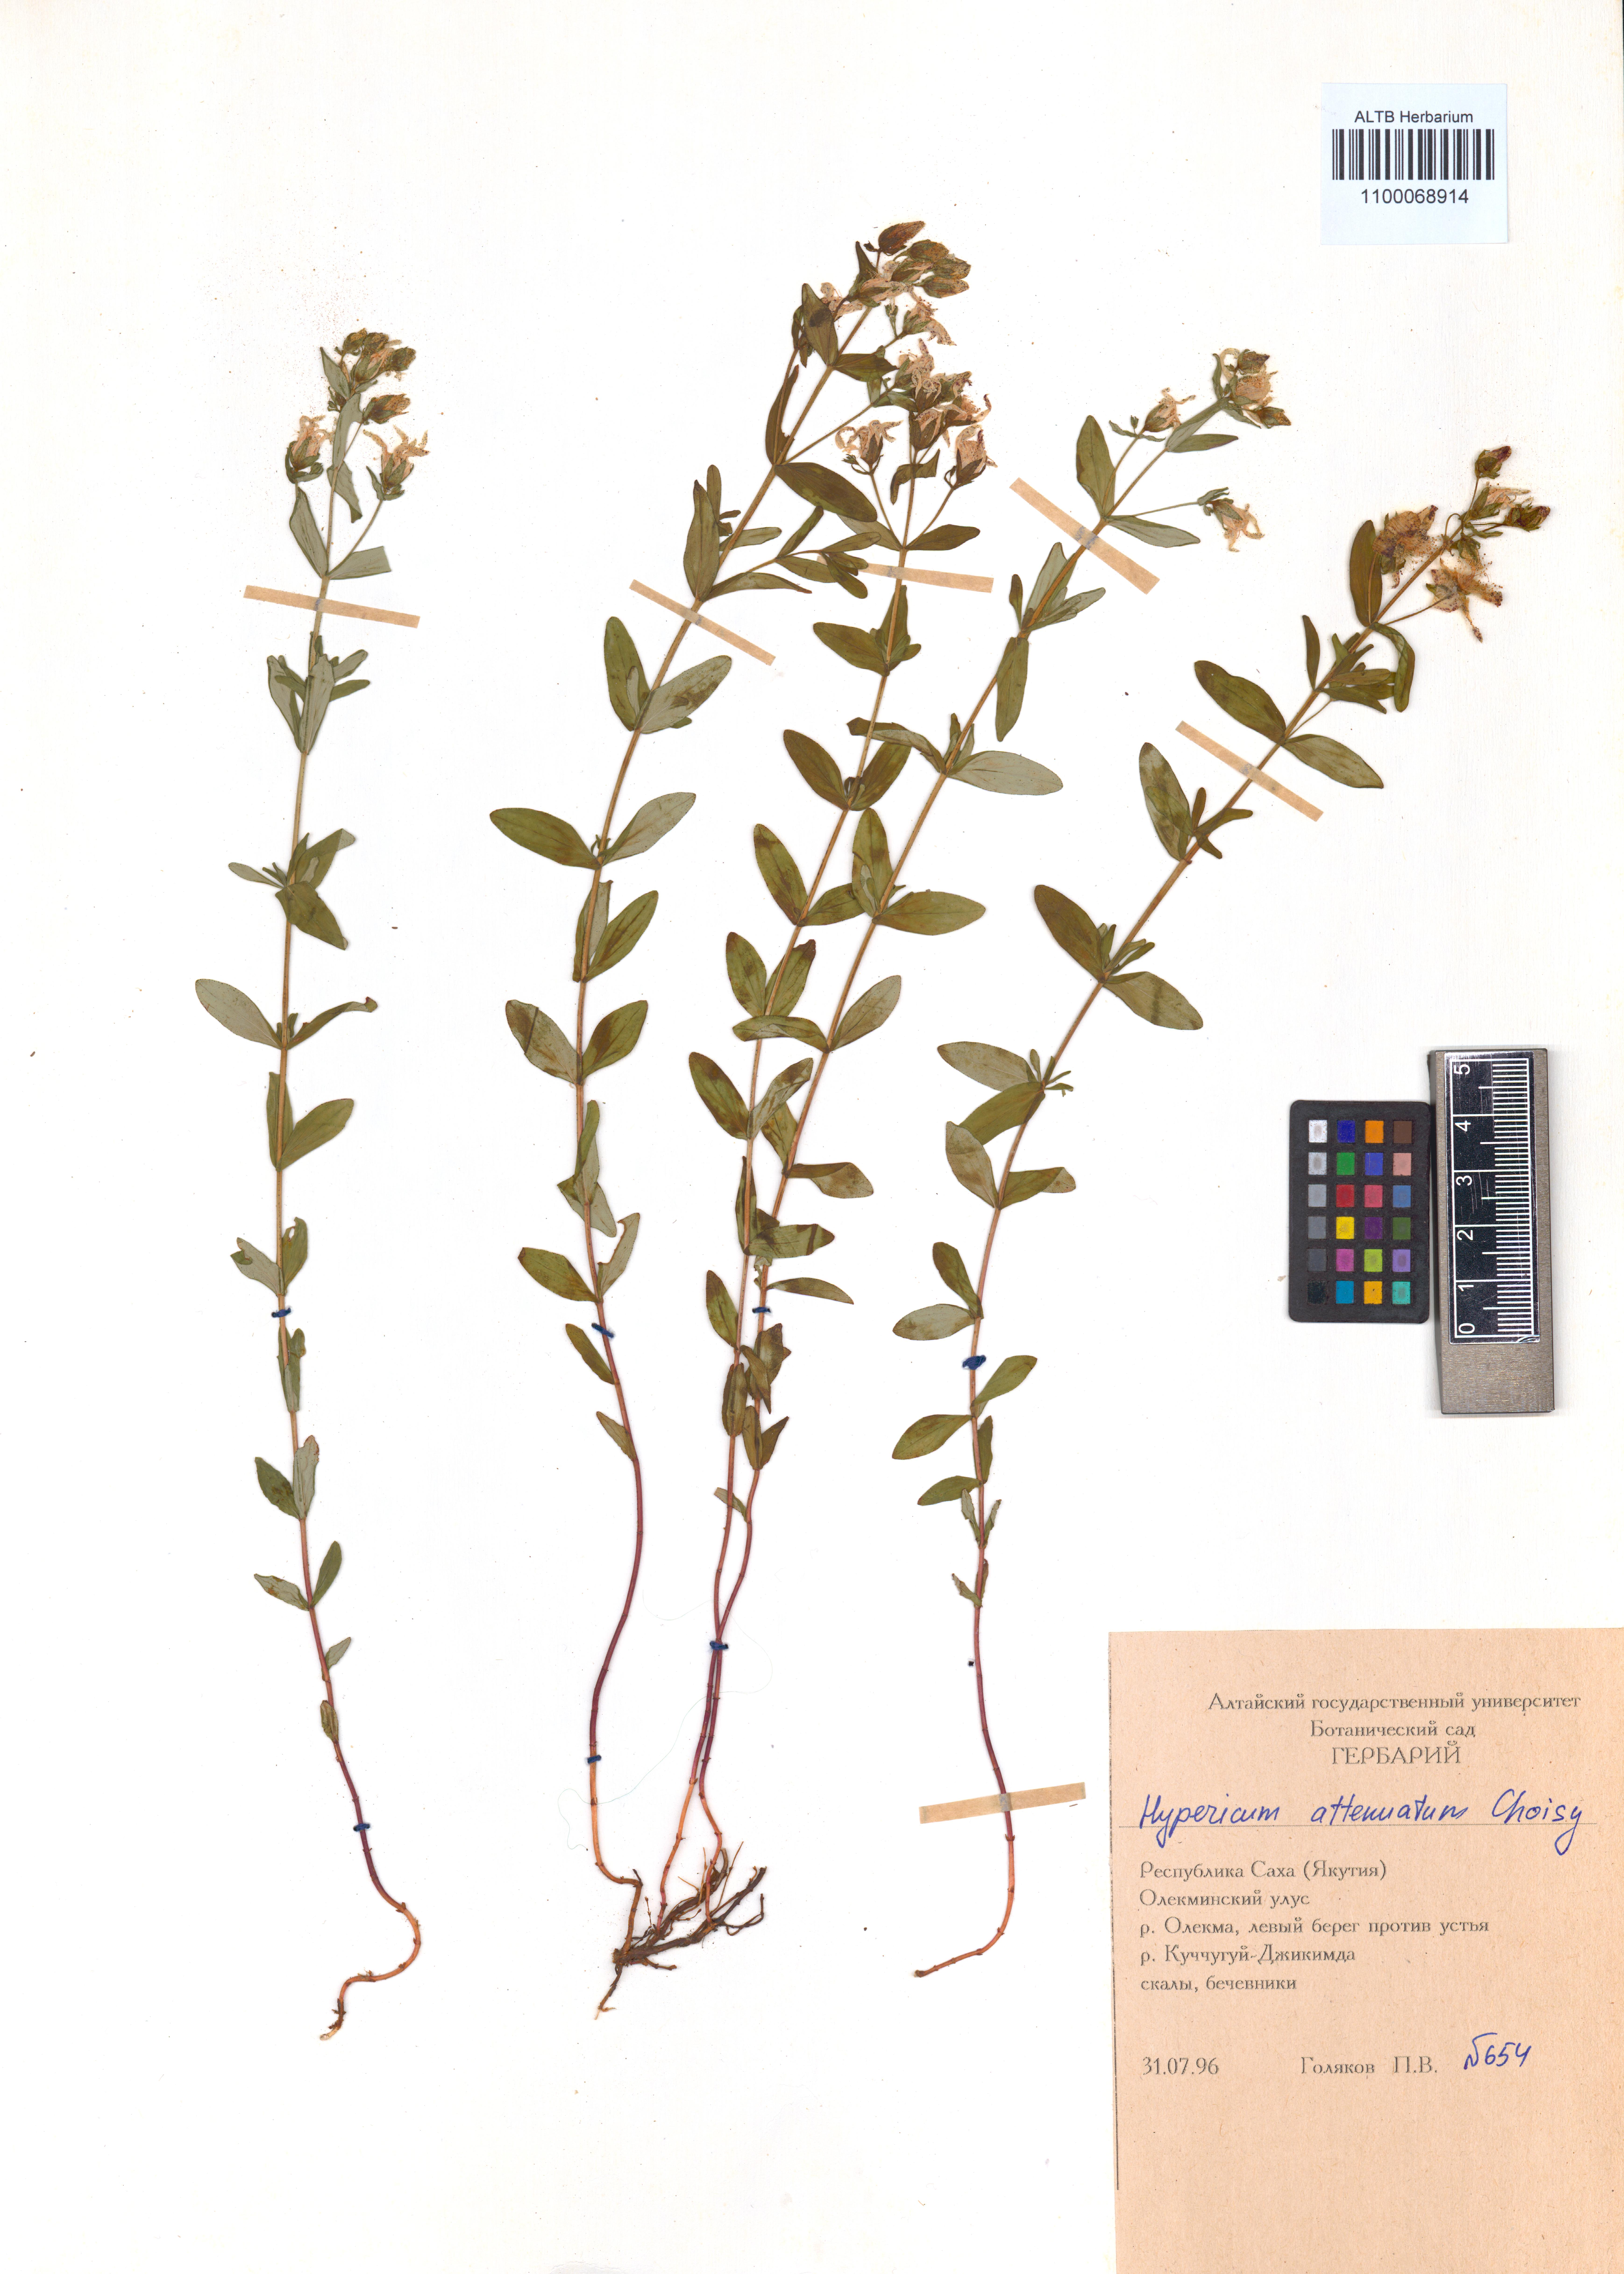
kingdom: Plantae
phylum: Tracheophyta
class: Magnoliopsida
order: Malpighiales
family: Hypericaceae
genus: Hypericum
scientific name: Hypericum attenuatum
